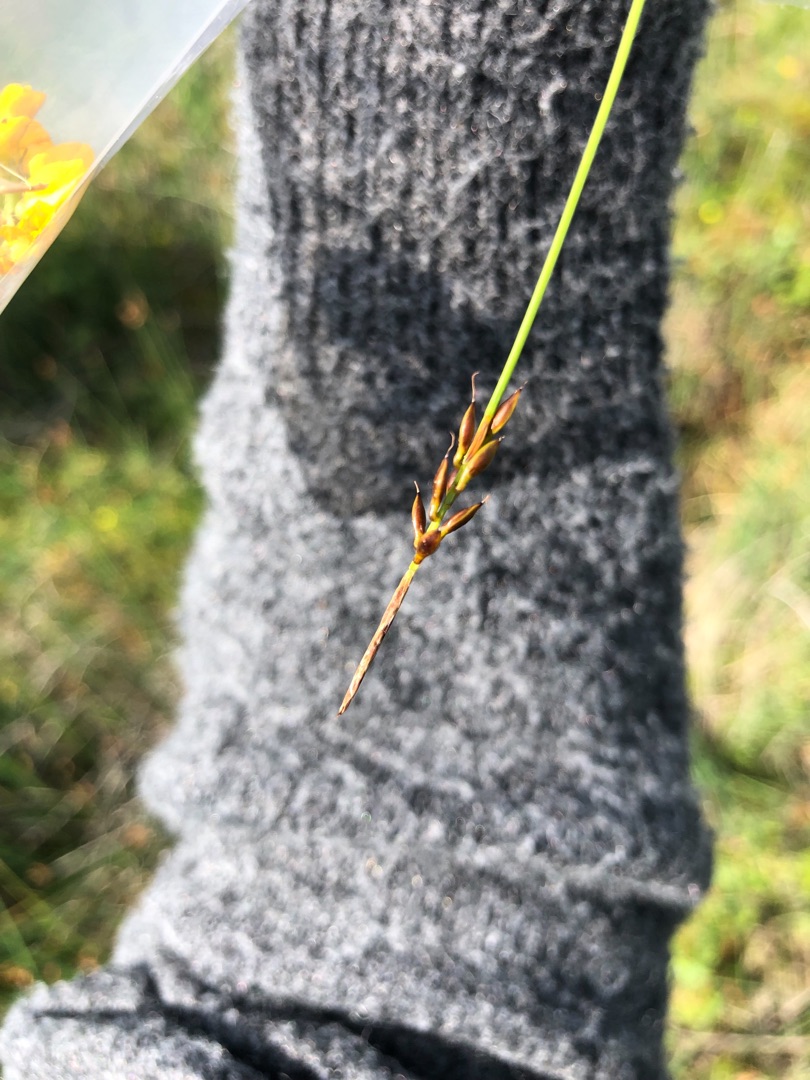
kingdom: Plantae
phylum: Tracheophyta
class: Liliopsida
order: Poales
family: Cyperaceae
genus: Carex
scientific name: Carex pulicaris
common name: Loppe-star
